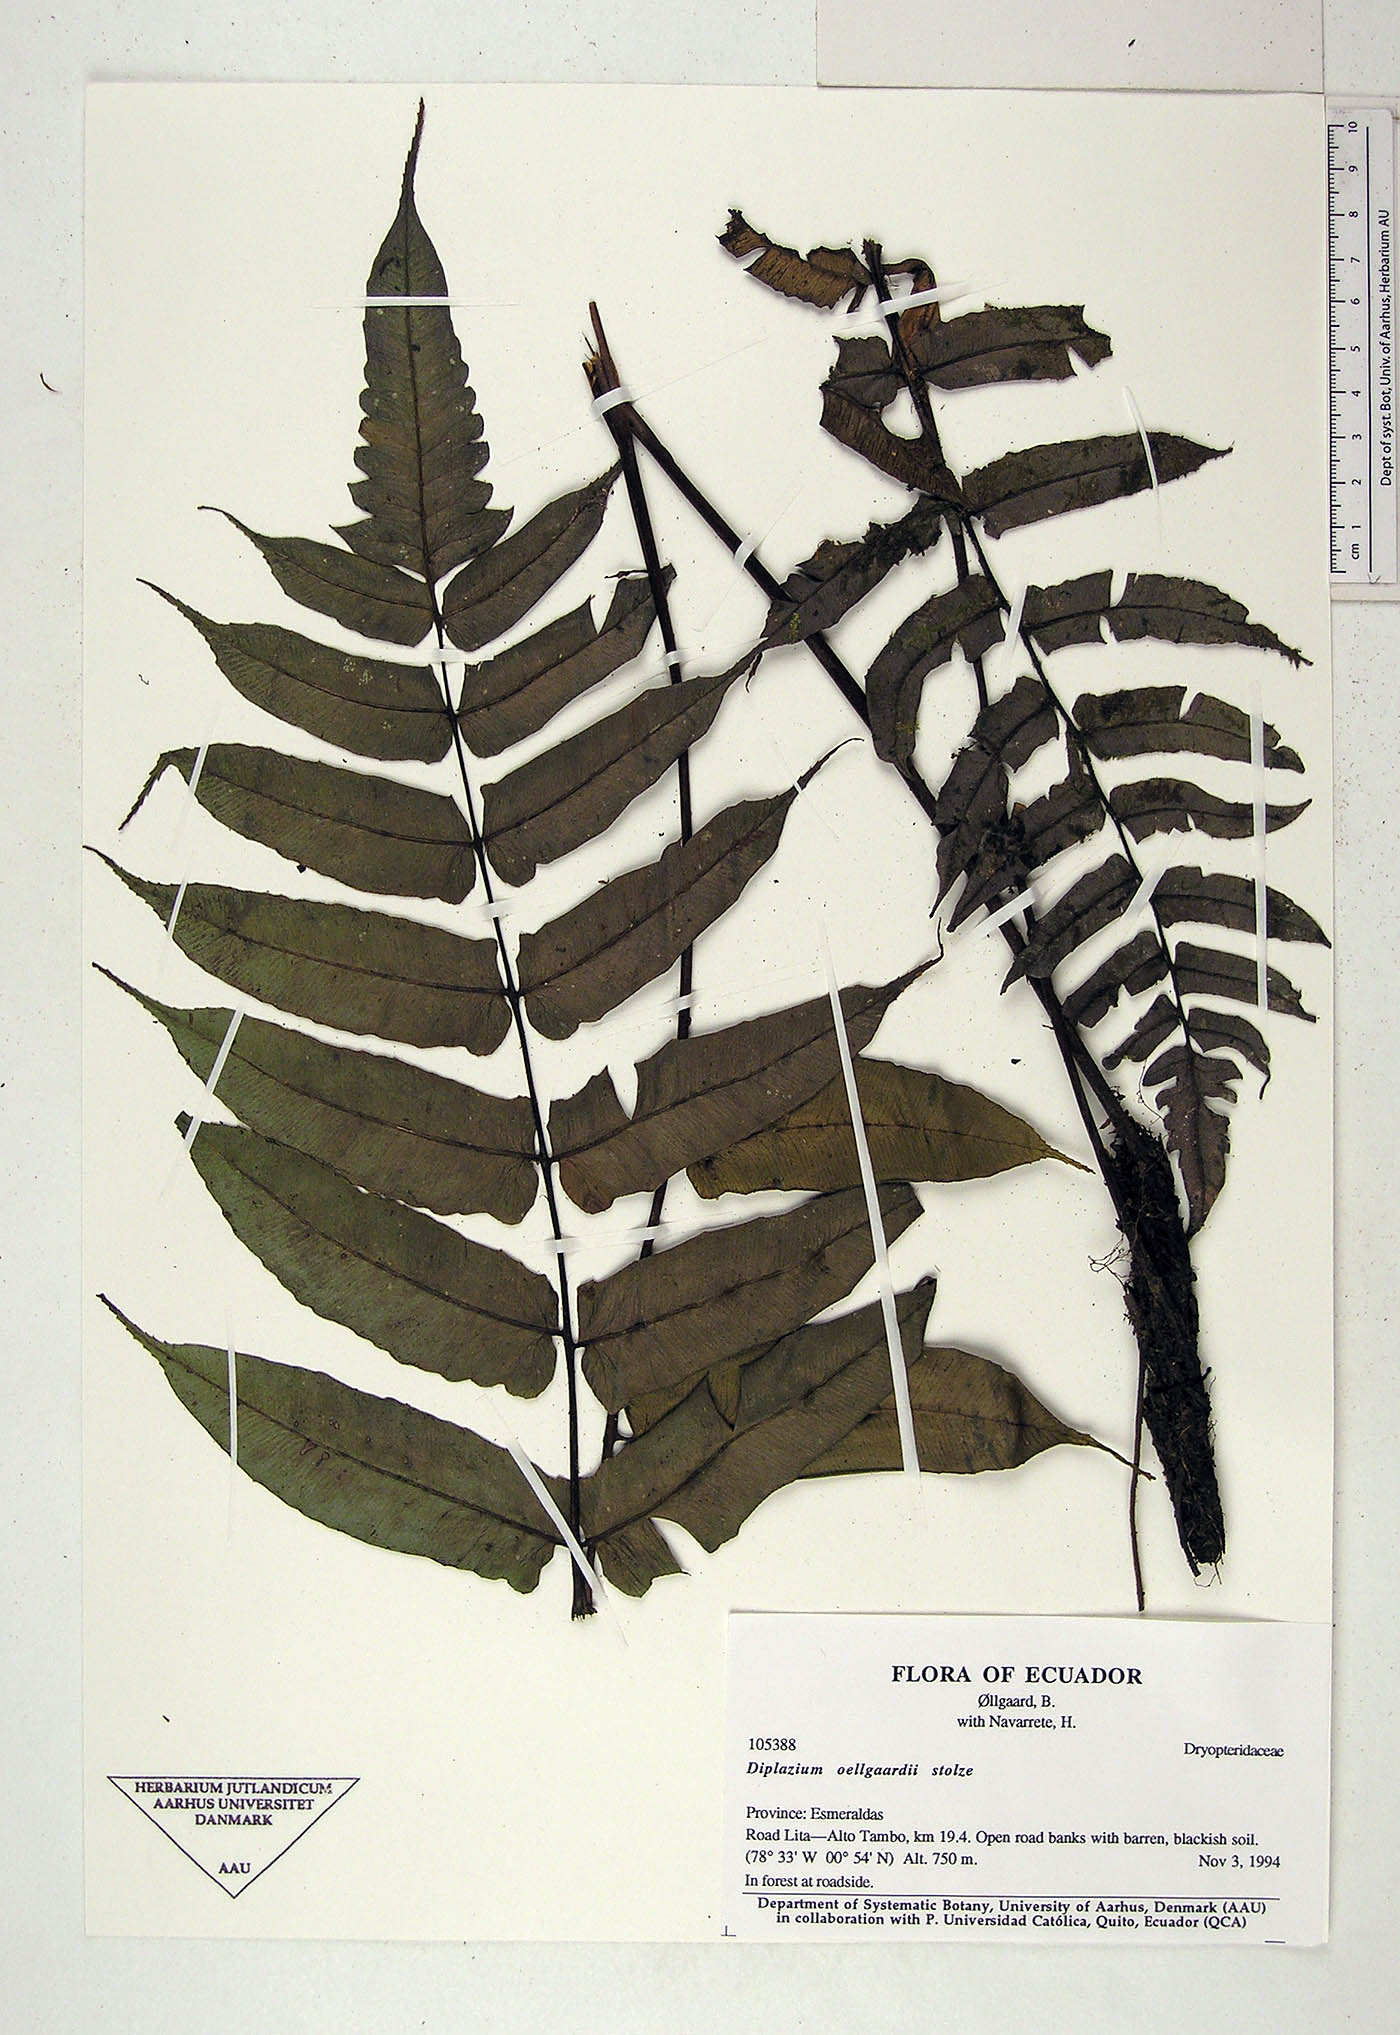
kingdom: Plantae
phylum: Tracheophyta
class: Polypodiopsida
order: Polypodiales
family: Athyriaceae
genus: Diplazium
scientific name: Diplazium oellgaardii
